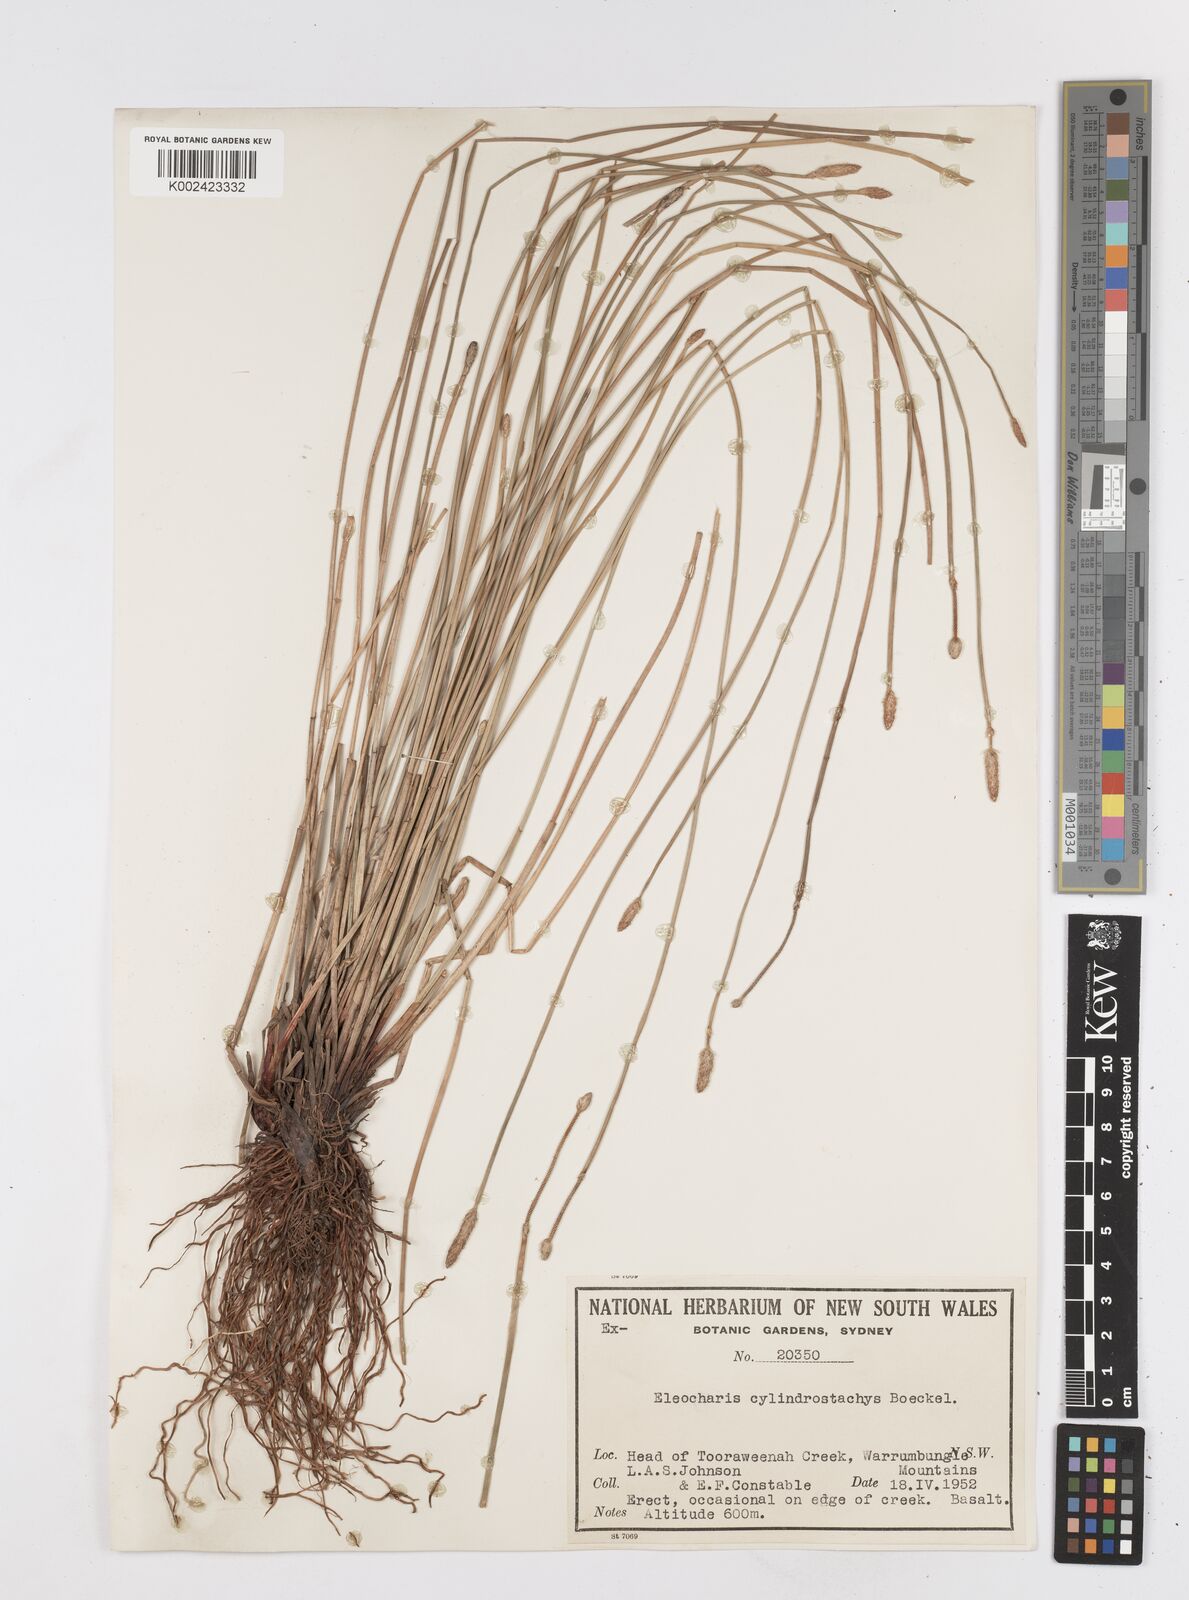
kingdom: Plantae
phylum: Tracheophyta
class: Liliopsida
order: Poales
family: Cyperaceae
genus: Eleocharis
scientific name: Eleocharis cylindrostachys
